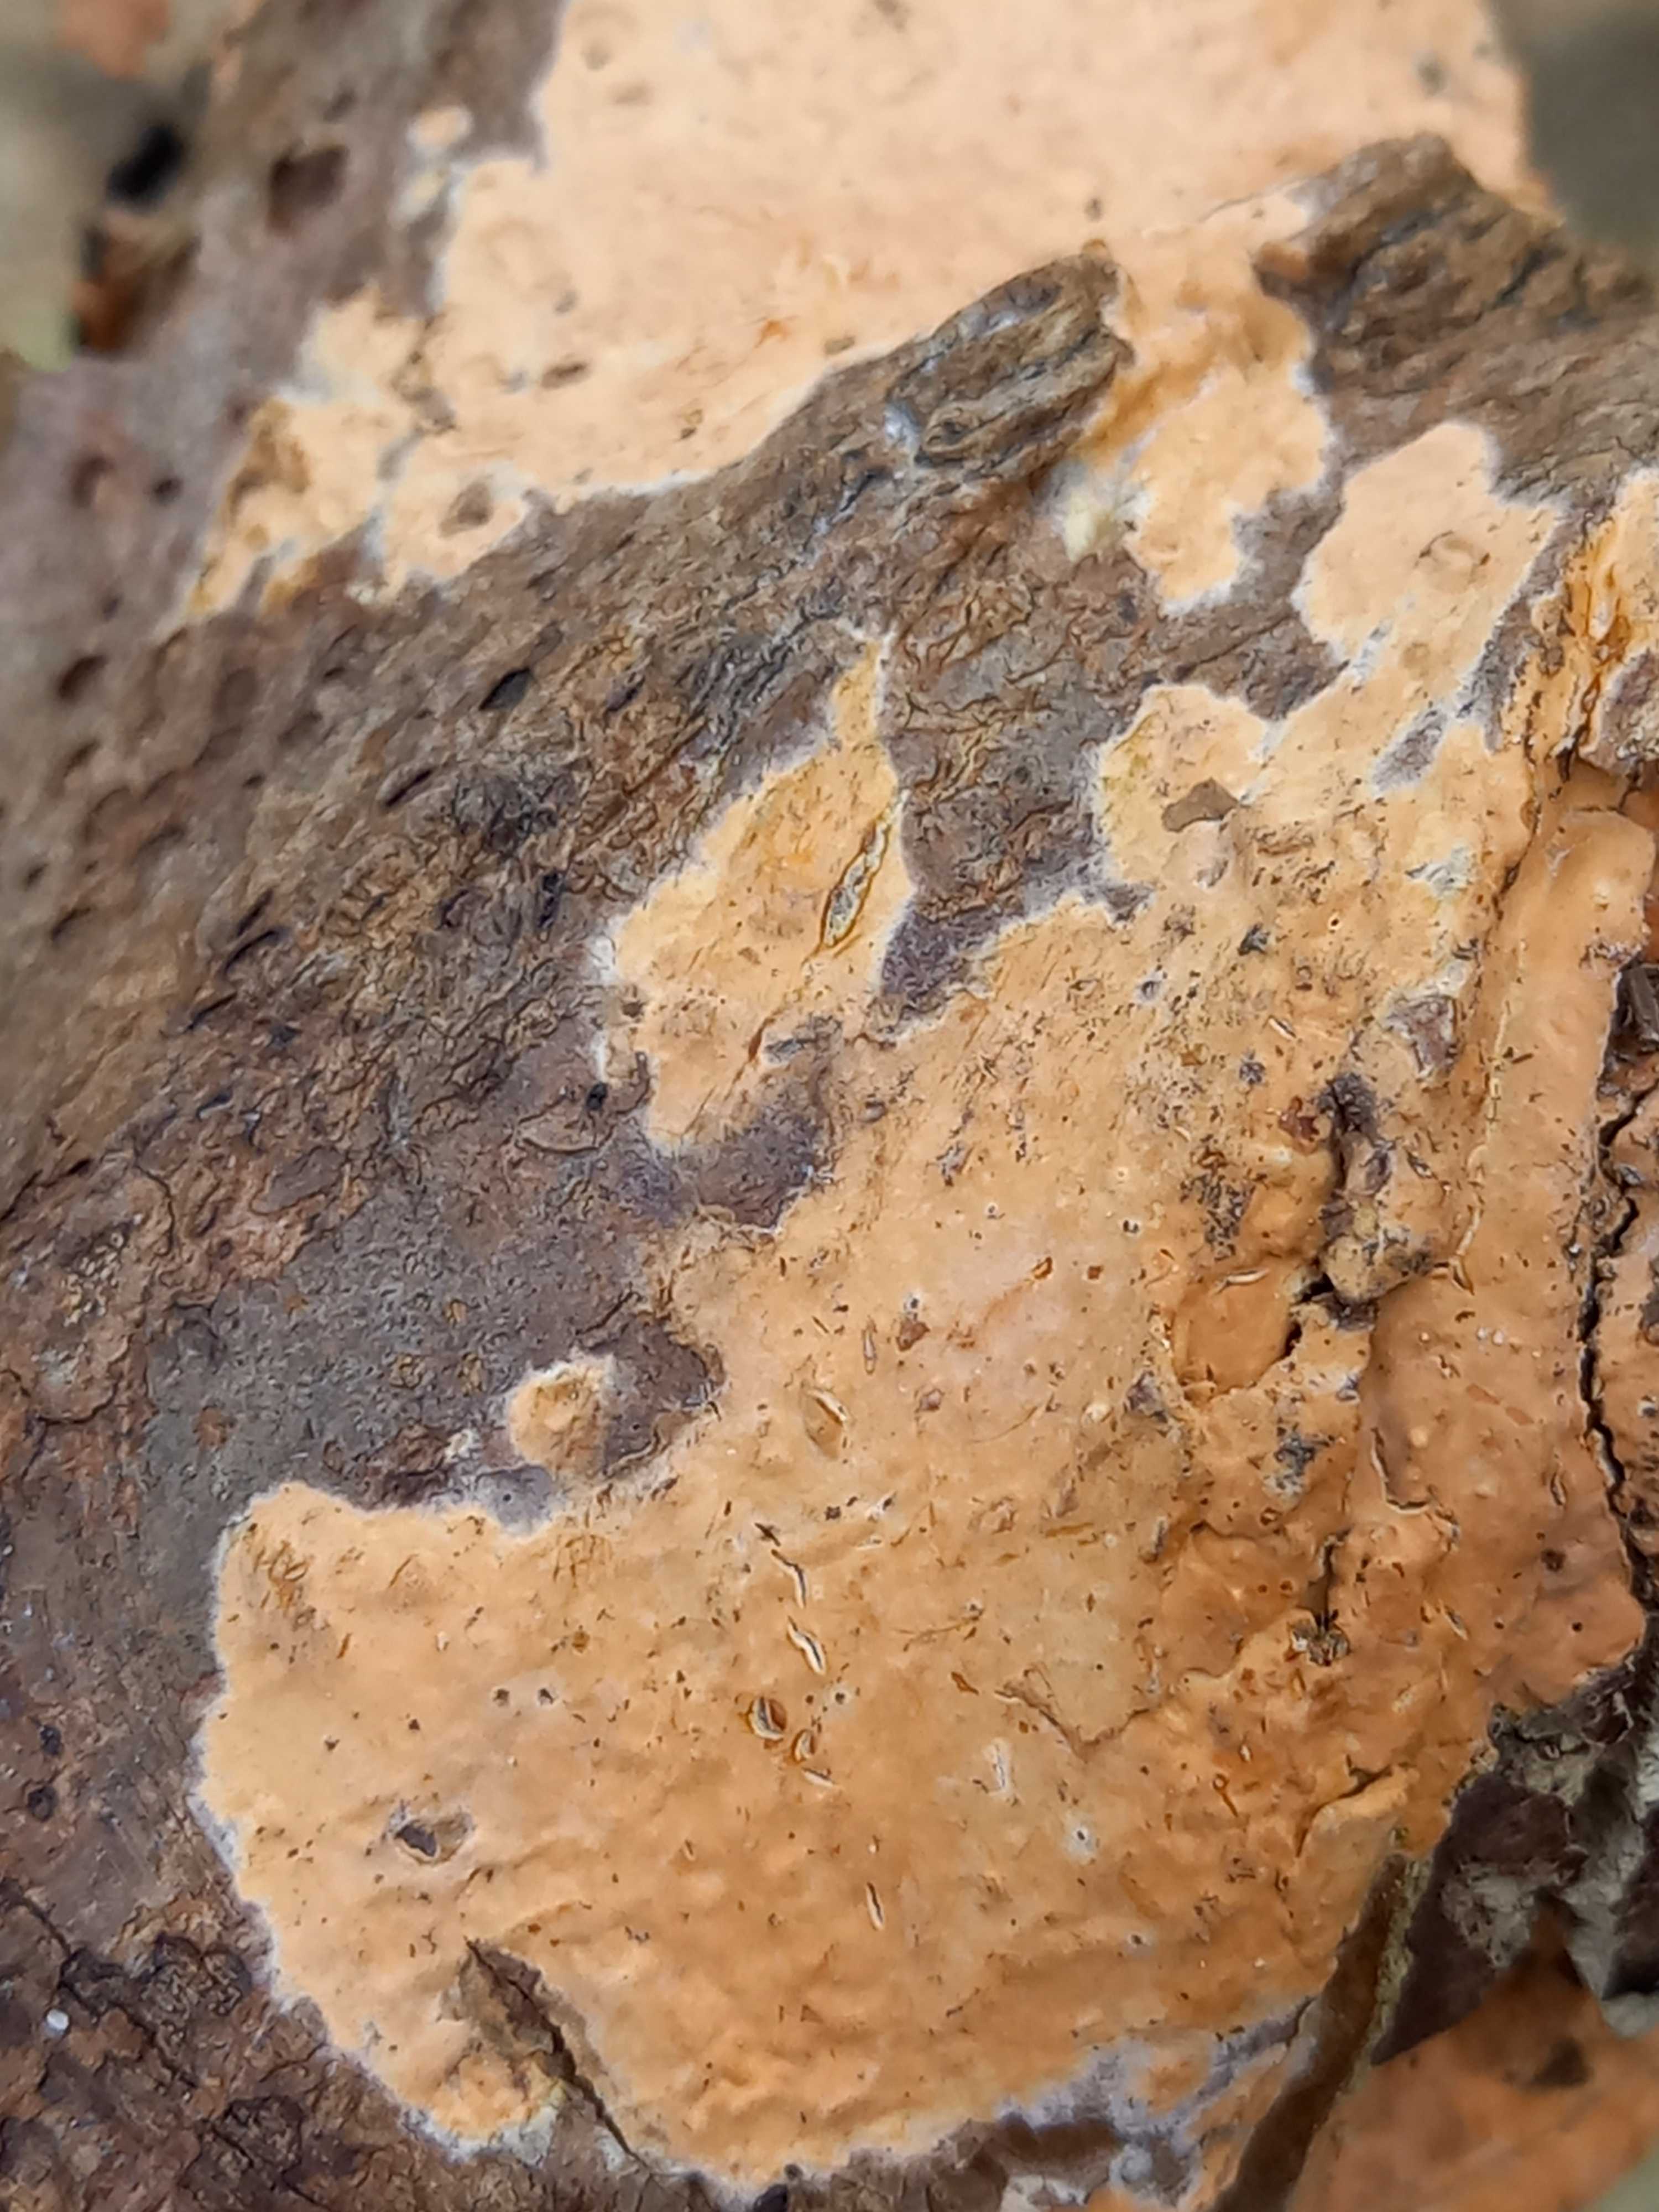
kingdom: Fungi
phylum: Basidiomycota
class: Agaricomycetes
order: Russulales
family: Peniophoraceae
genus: Peniophora
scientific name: Peniophora incarnata
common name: laksefarvet voksskind
